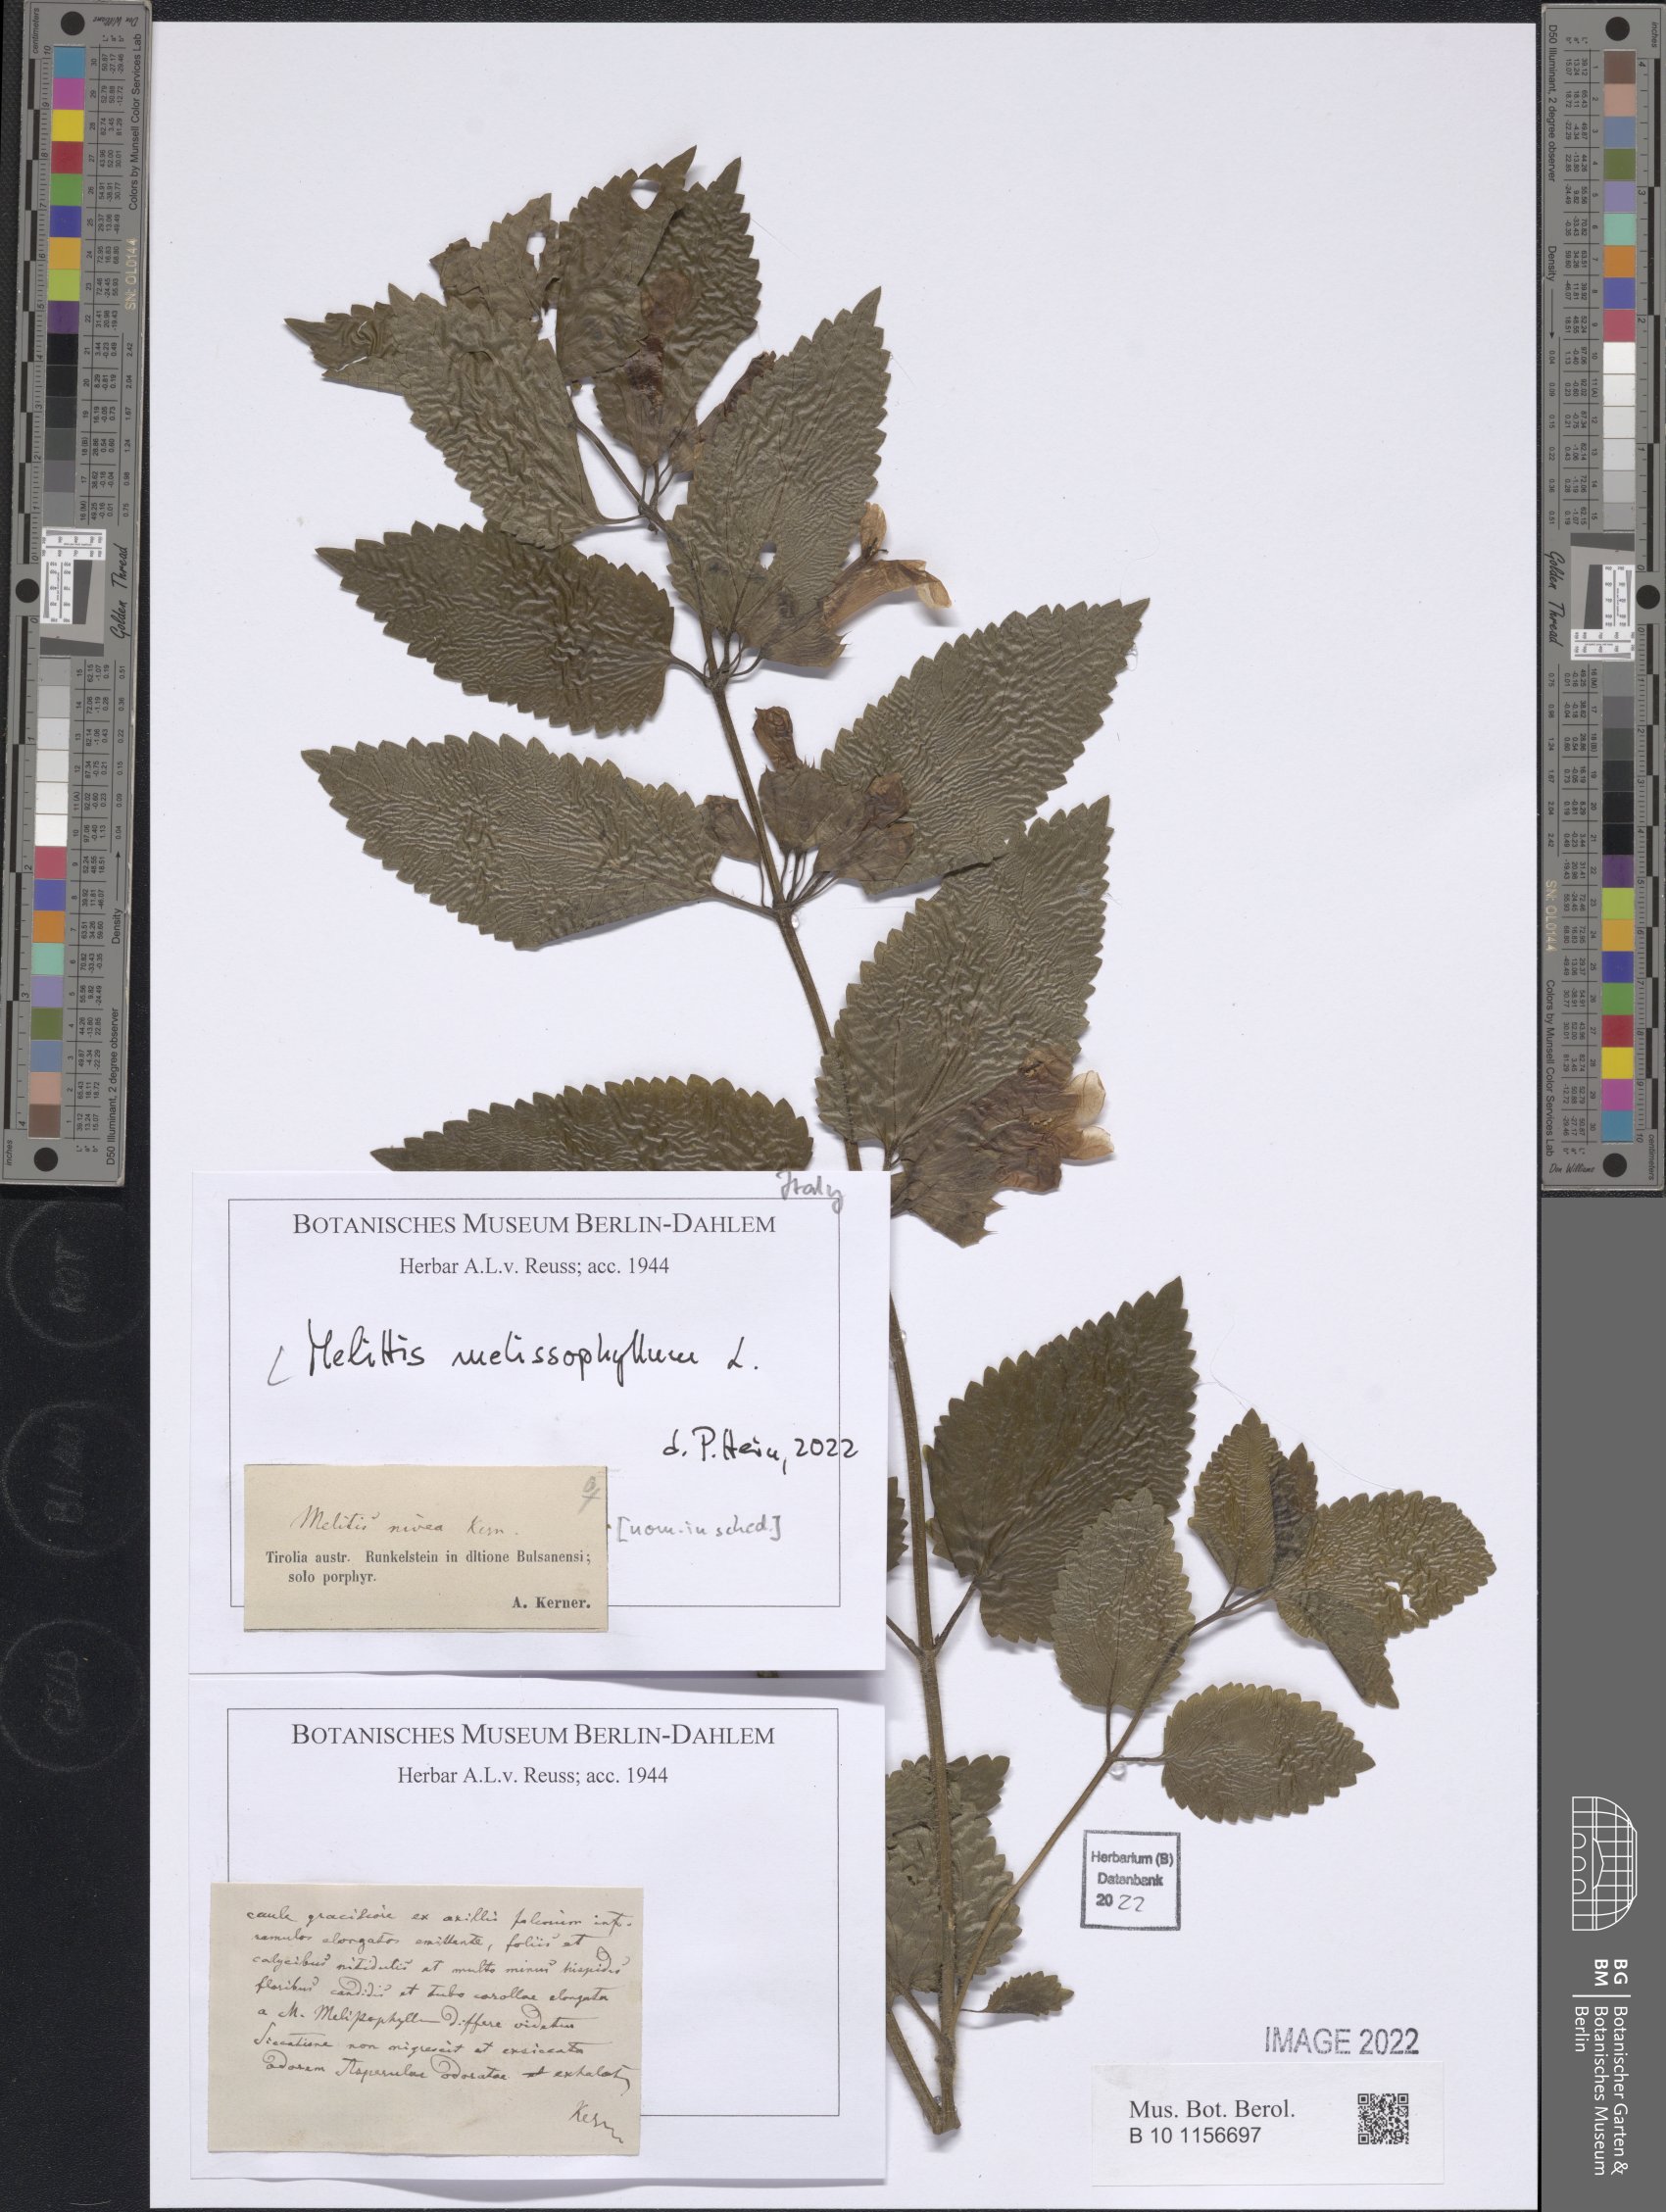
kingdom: Plantae
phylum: Tracheophyta
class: Magnoliopsida
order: Lamiales
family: Lamiaceae
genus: Melittis
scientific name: Melittis melissophyllum
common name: Bastard balm
